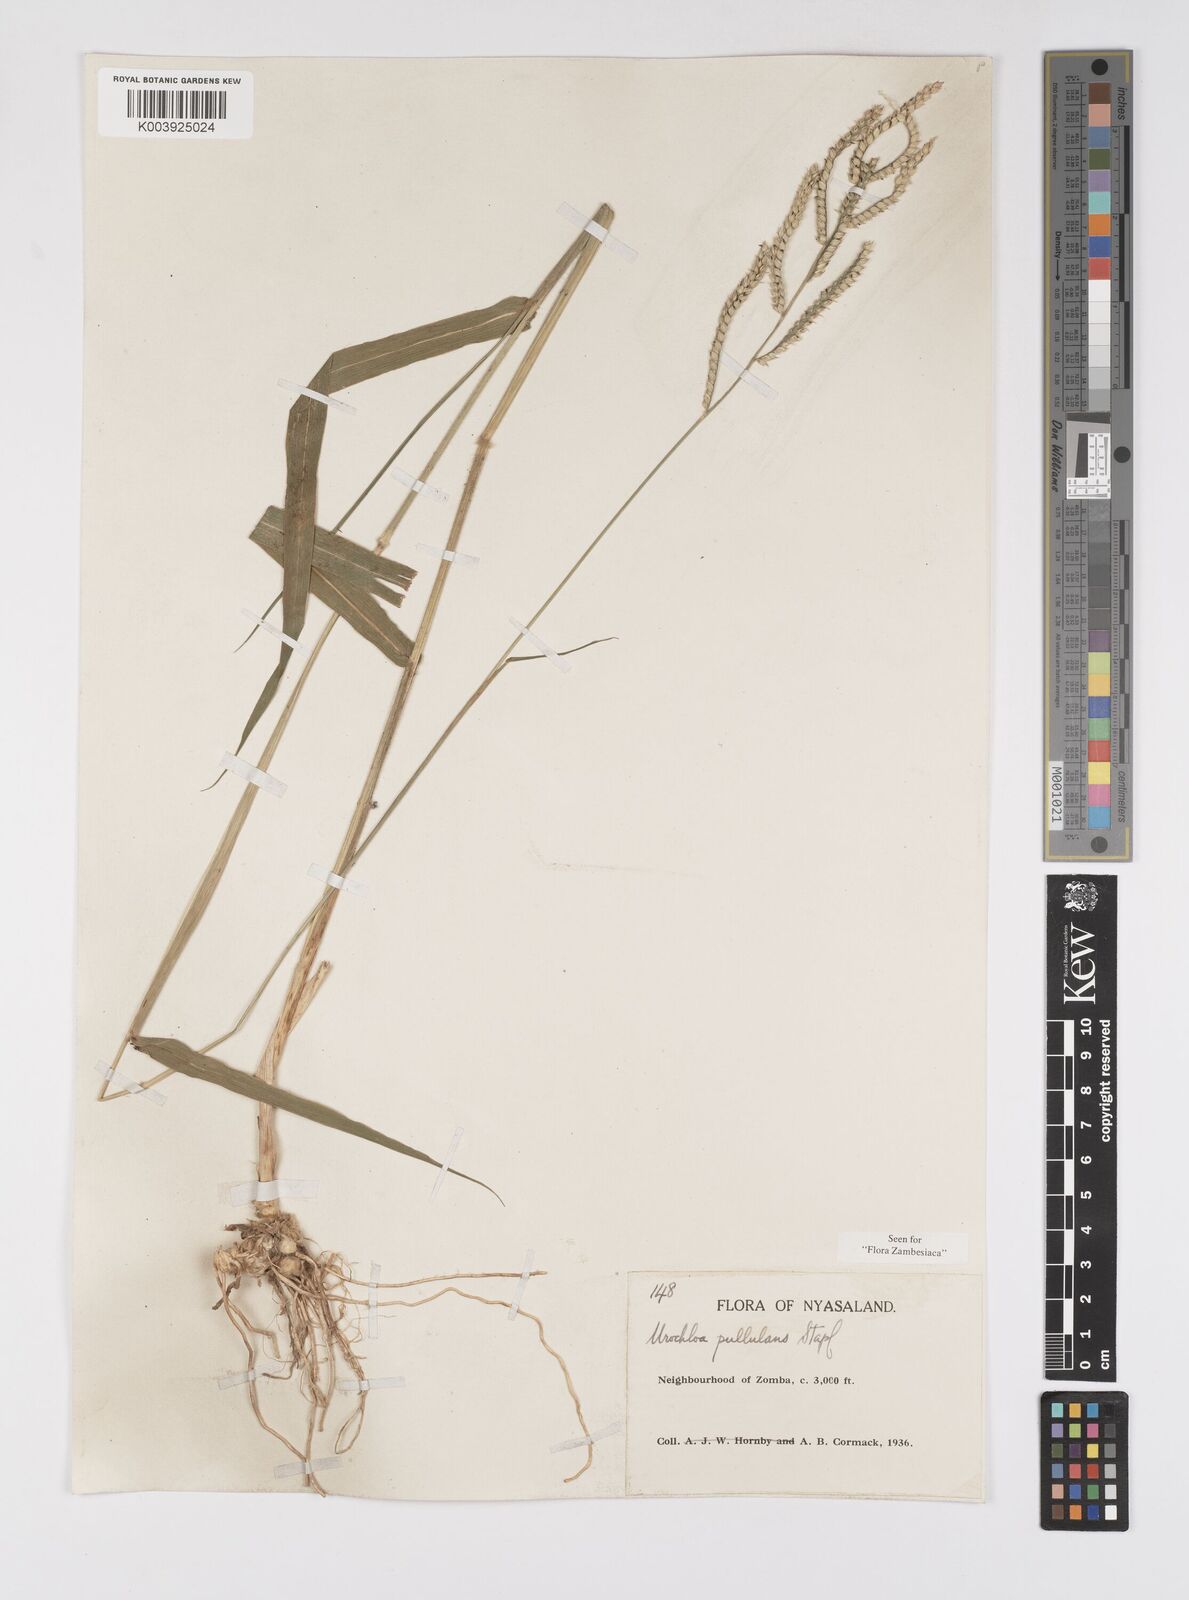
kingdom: Plantae
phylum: Tracheophyta
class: Liliopsida
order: Poales
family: Poaceae
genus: Urochloa
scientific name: Urochloa trichopus
